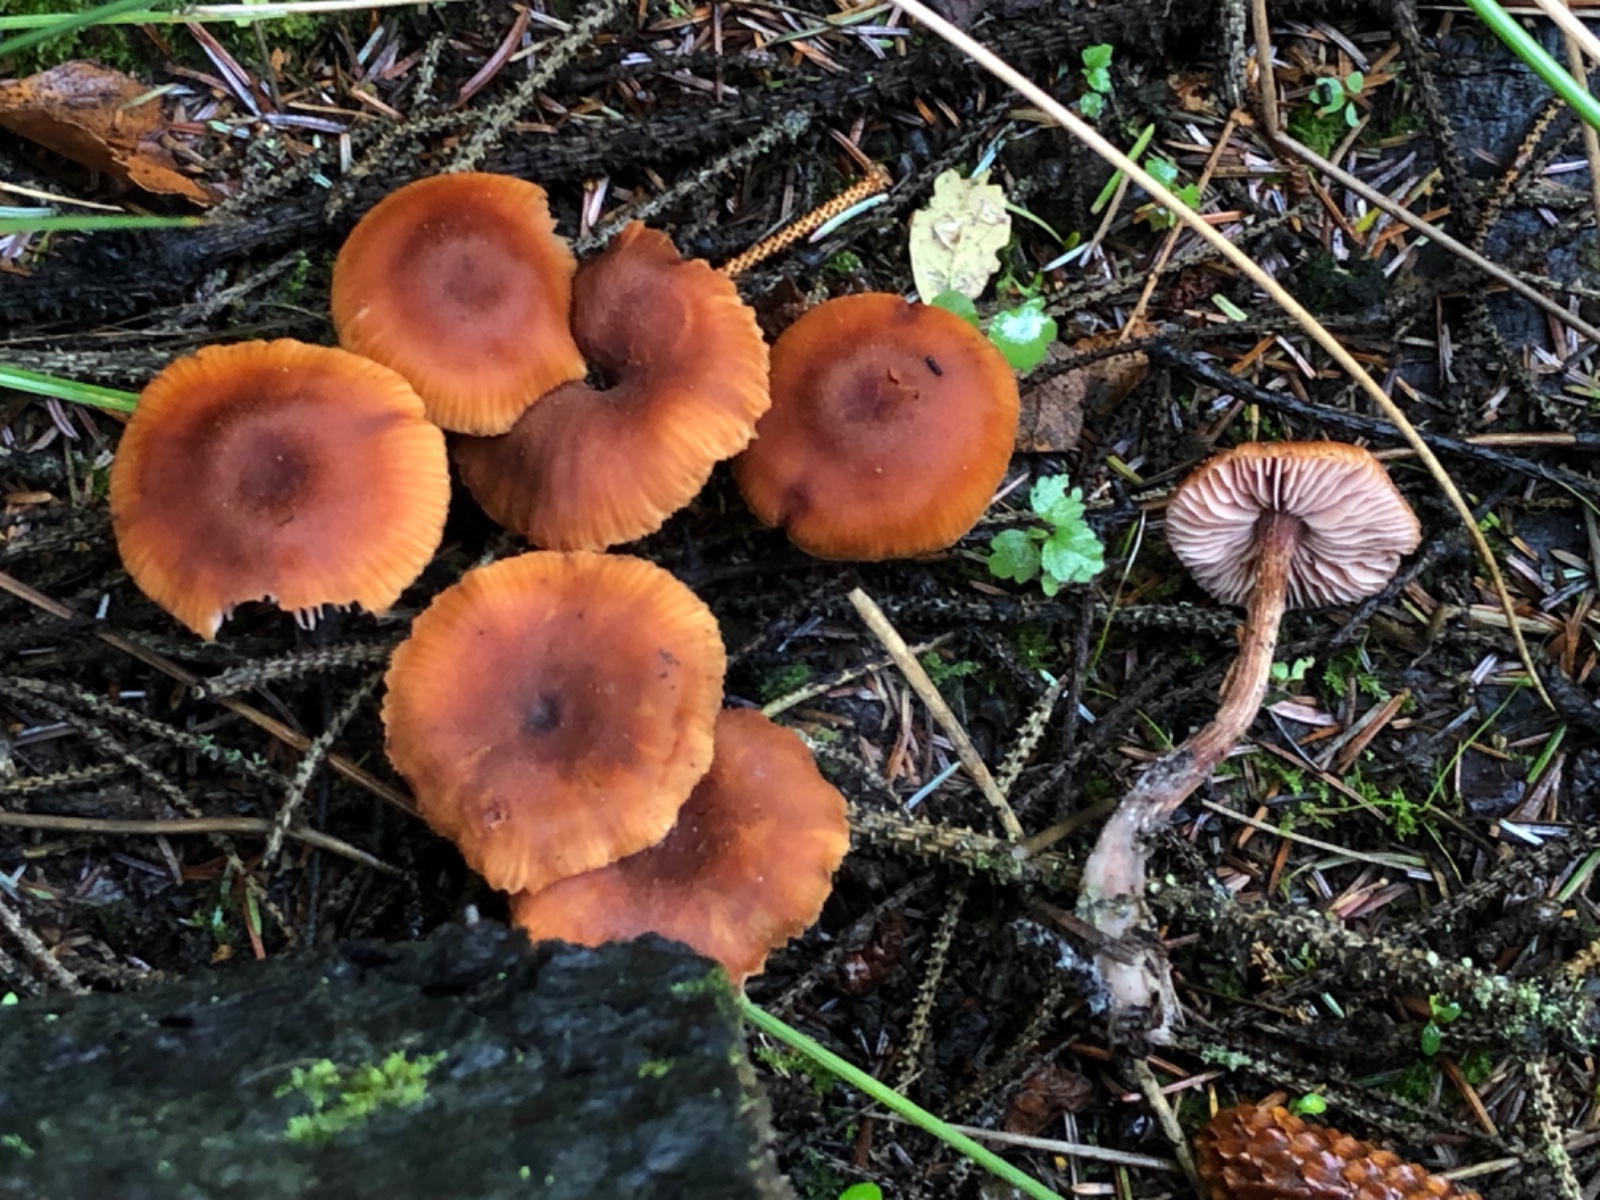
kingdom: Fungi
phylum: Basidiomycota
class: Agaricomycetes
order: Agaricales
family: Hydnangiaceae
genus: Laccaria
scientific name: Laccaria proxima
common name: stor ametysthat
